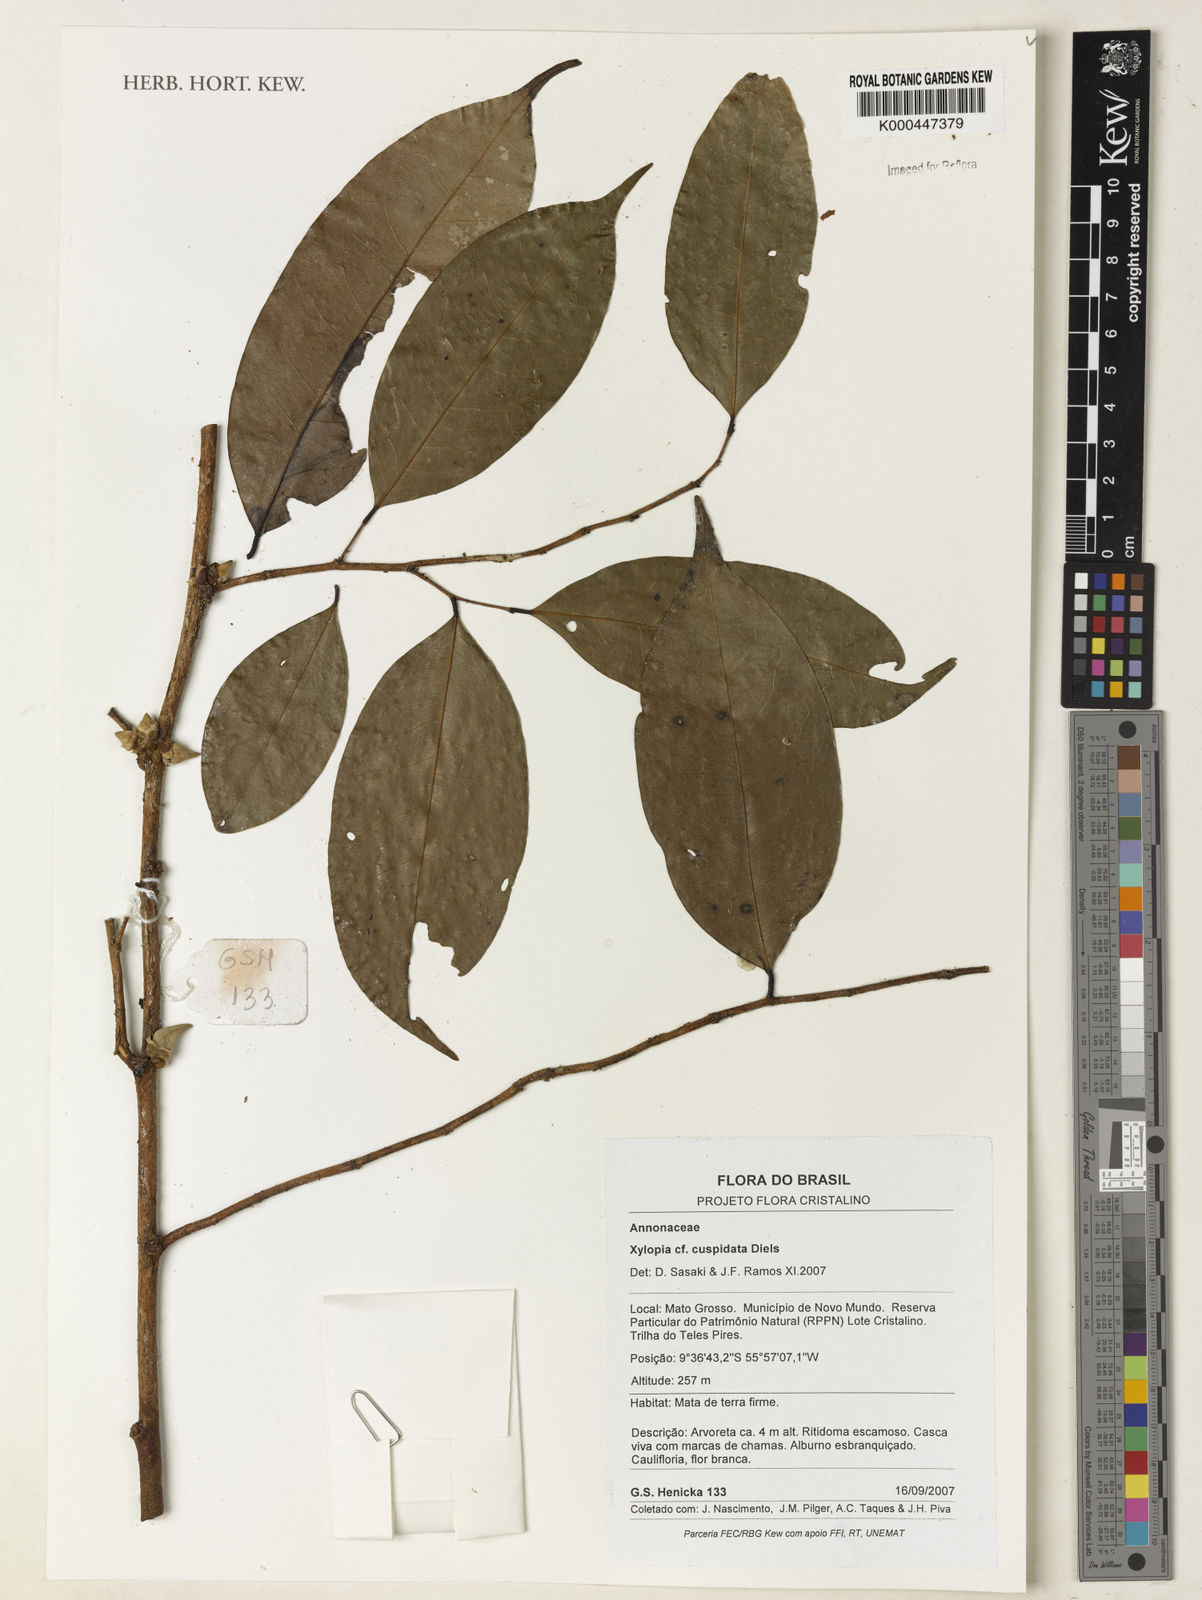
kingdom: Plantae
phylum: Tracheophyta
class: Magnoliopsida
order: Magnoliales
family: Annonaceae
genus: Xylopia
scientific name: Xylopia cuspidata
